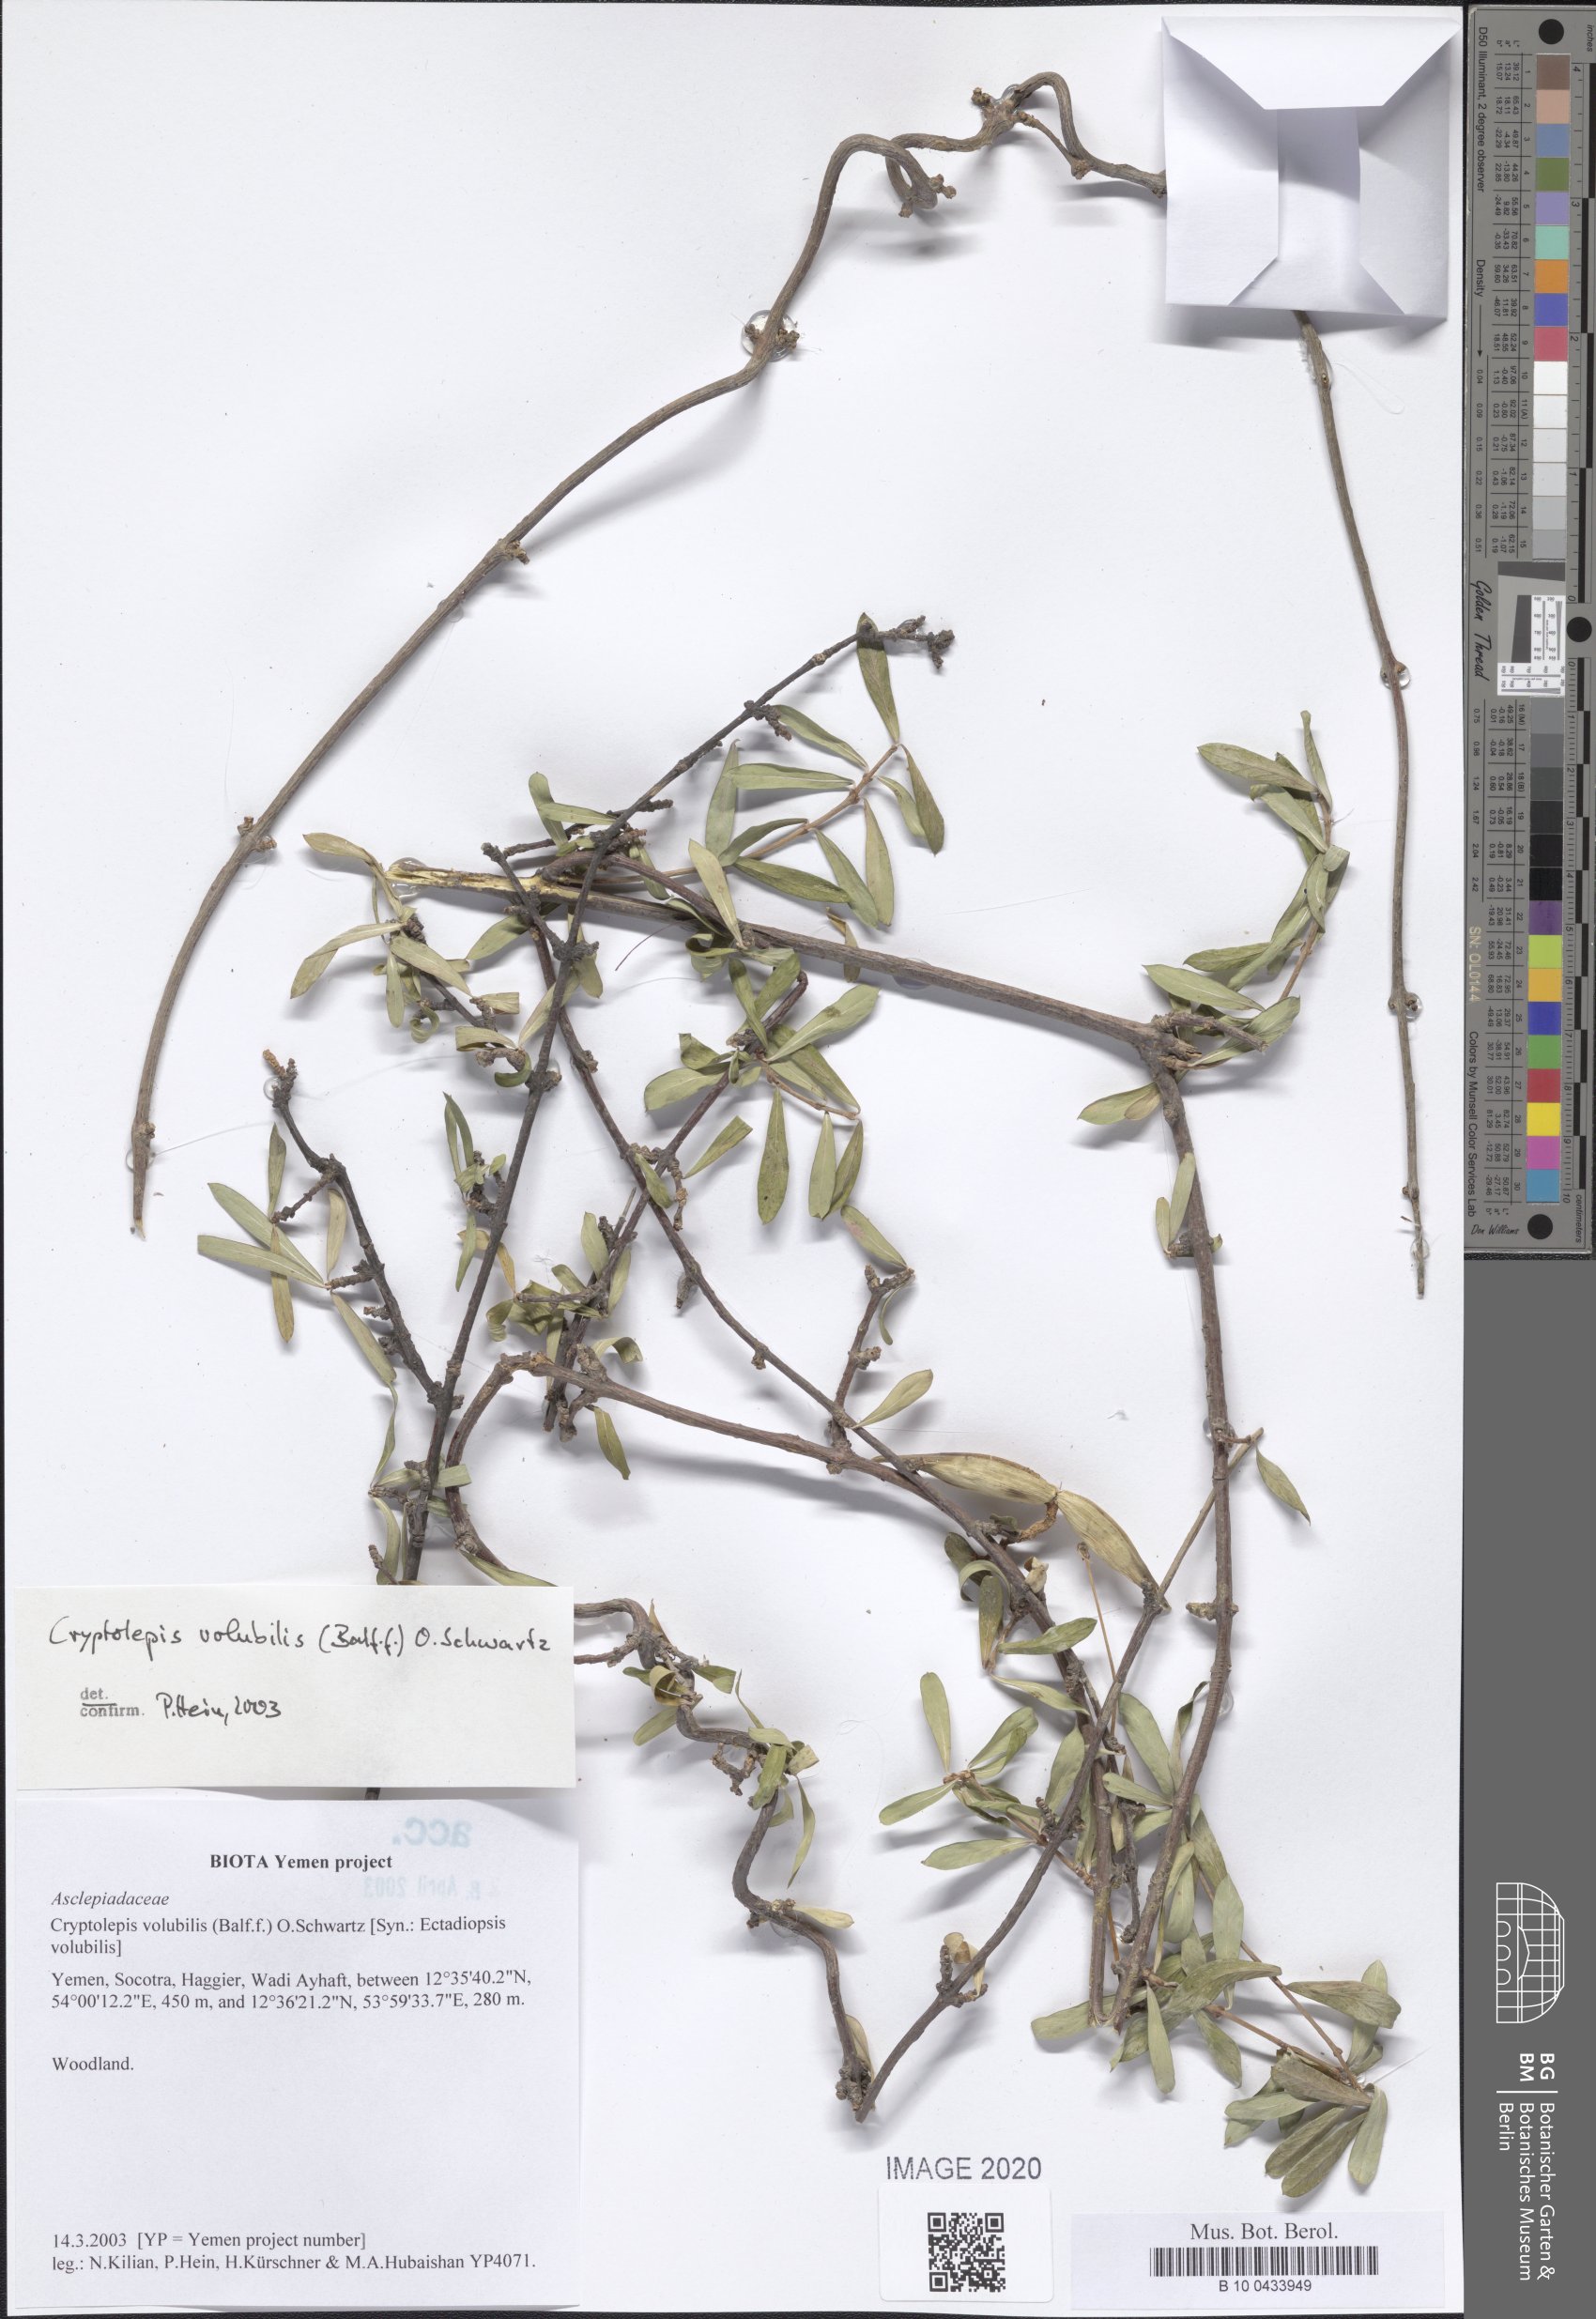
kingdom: Plantae
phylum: Tracheophyta
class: Magnoliopsida
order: Gentianales
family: Apocynaceae
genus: Cryptolepis
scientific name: Cryptolepis volubilis
